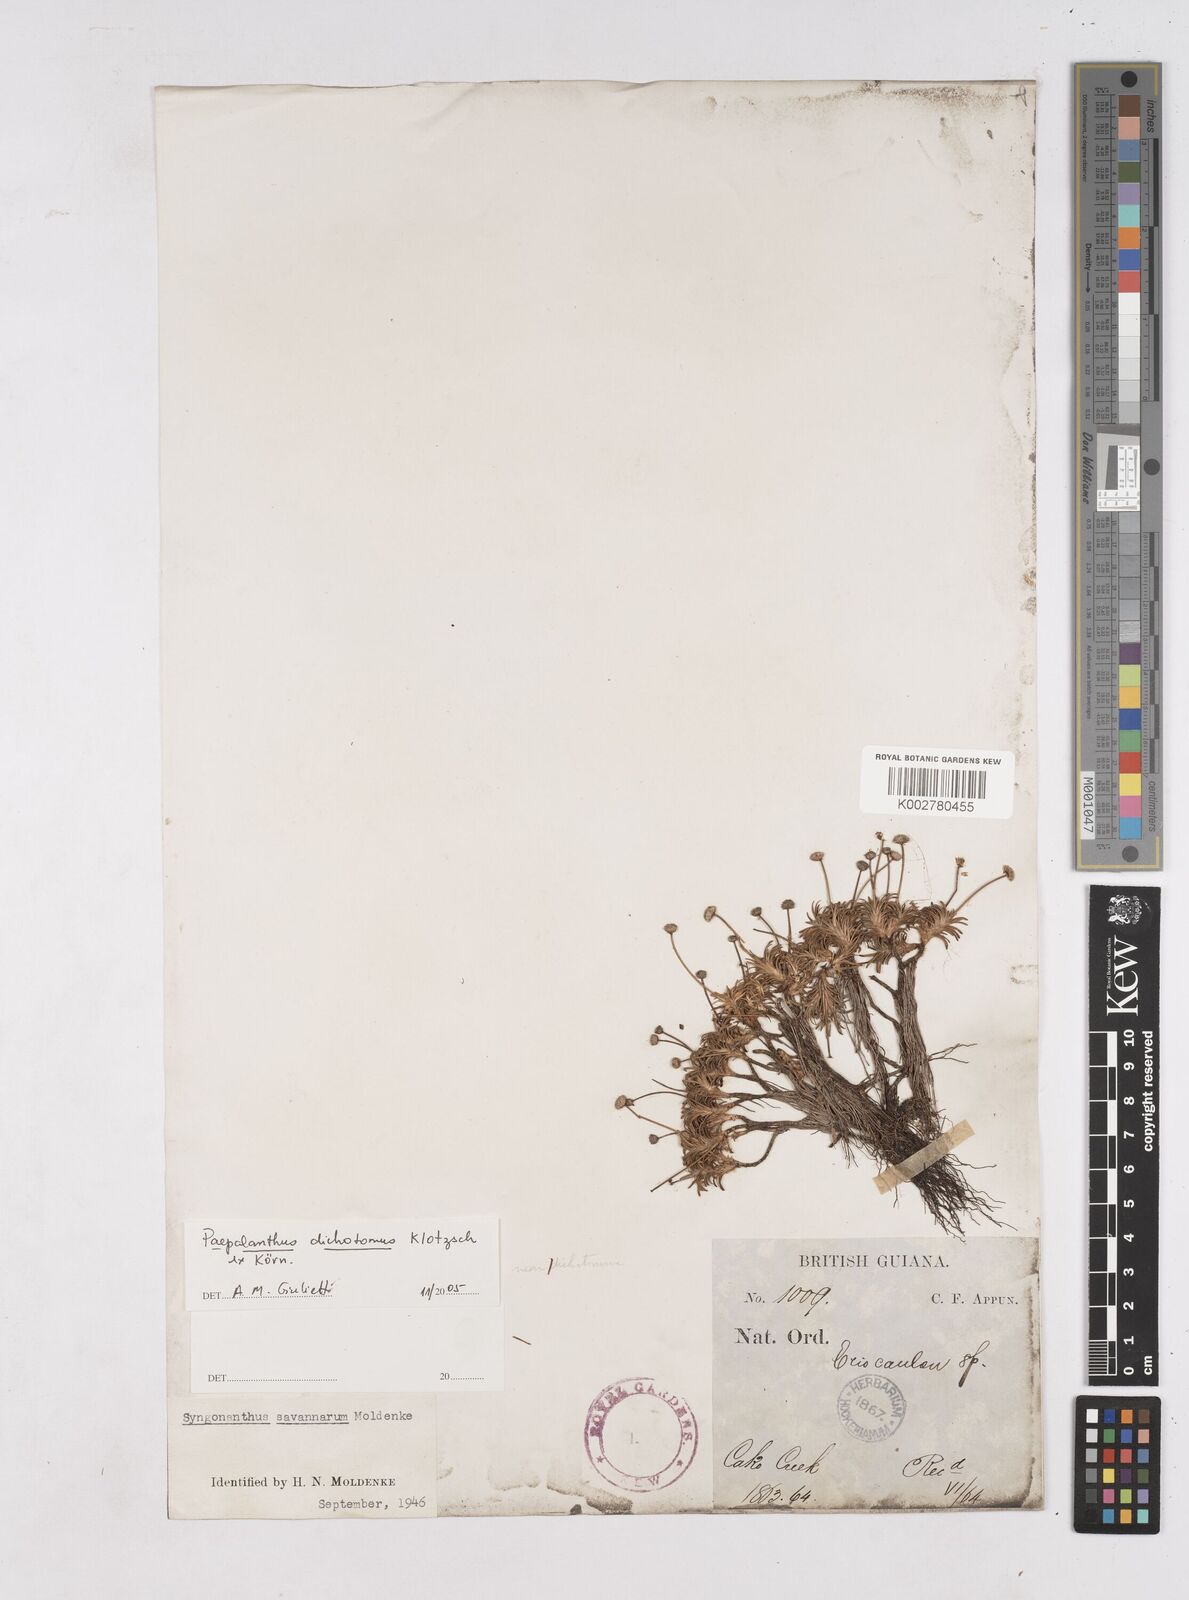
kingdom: Plantae
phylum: Tracheophyta
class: Liliopsida
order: Poales
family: Eriocaulaceae
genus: Paepalanthus
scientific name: Paepalanthus dichotomus
